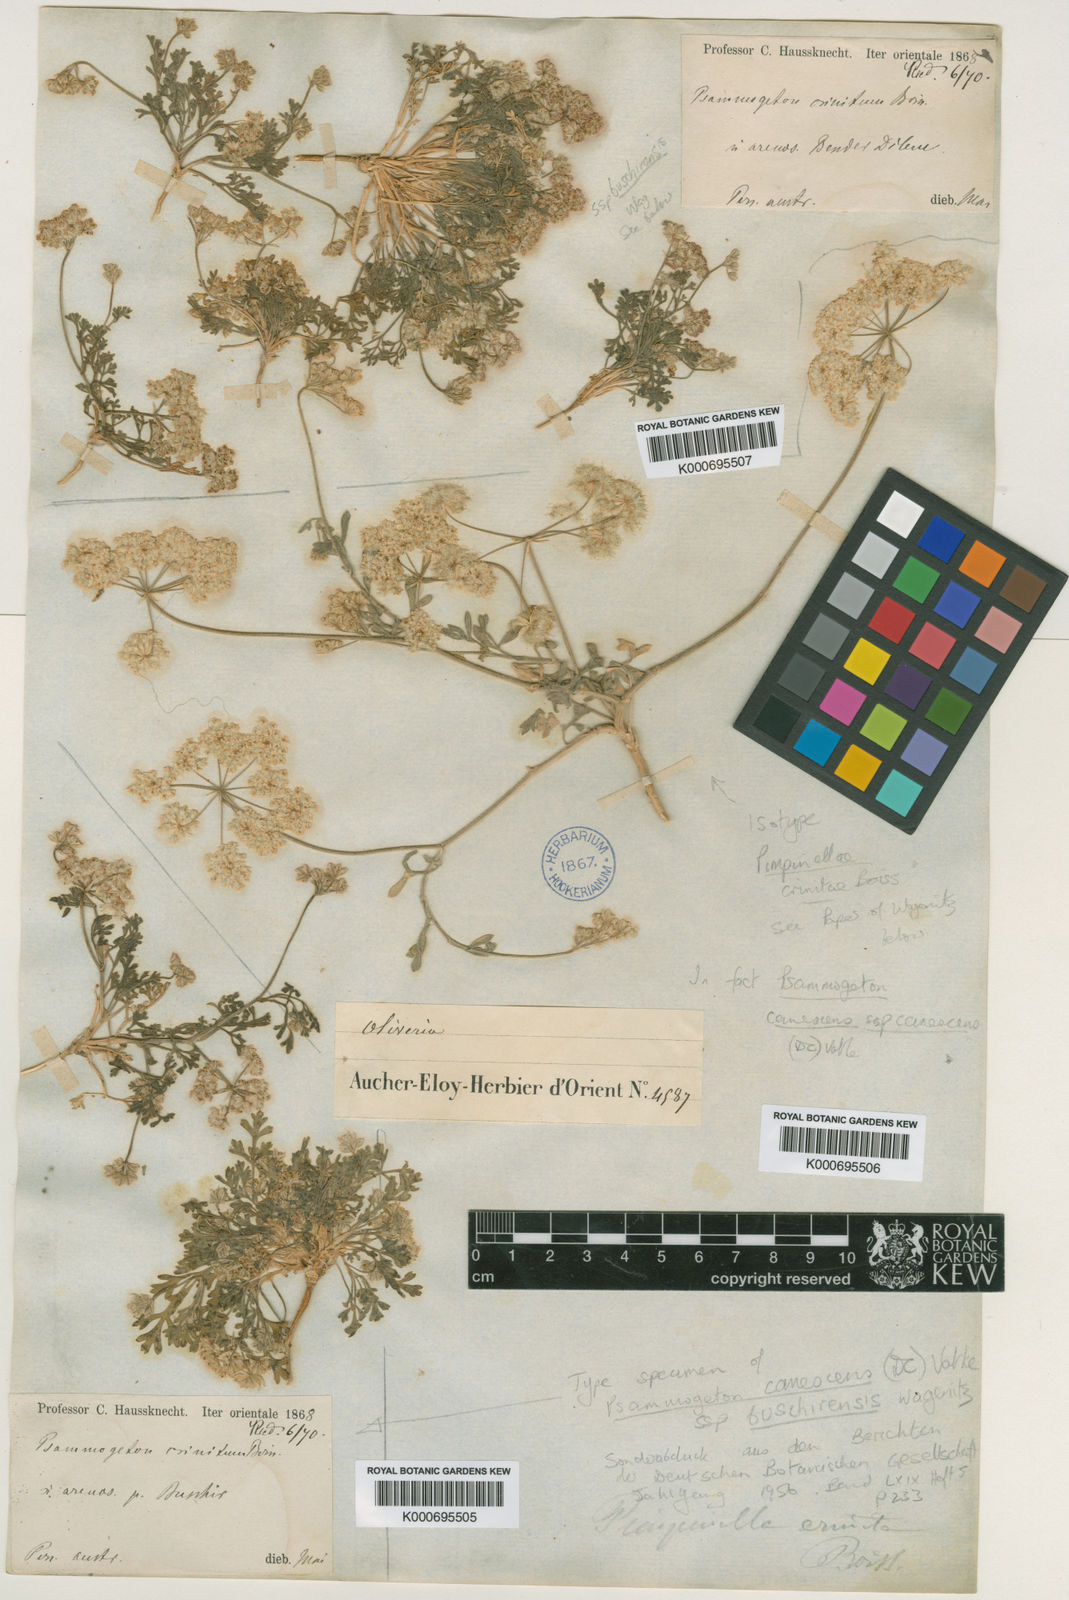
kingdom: Plantae
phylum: Tracheophyta
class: Magnoliopsida
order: Apiales
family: Apiaceae
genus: Psammogeton
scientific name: Psammogeton
